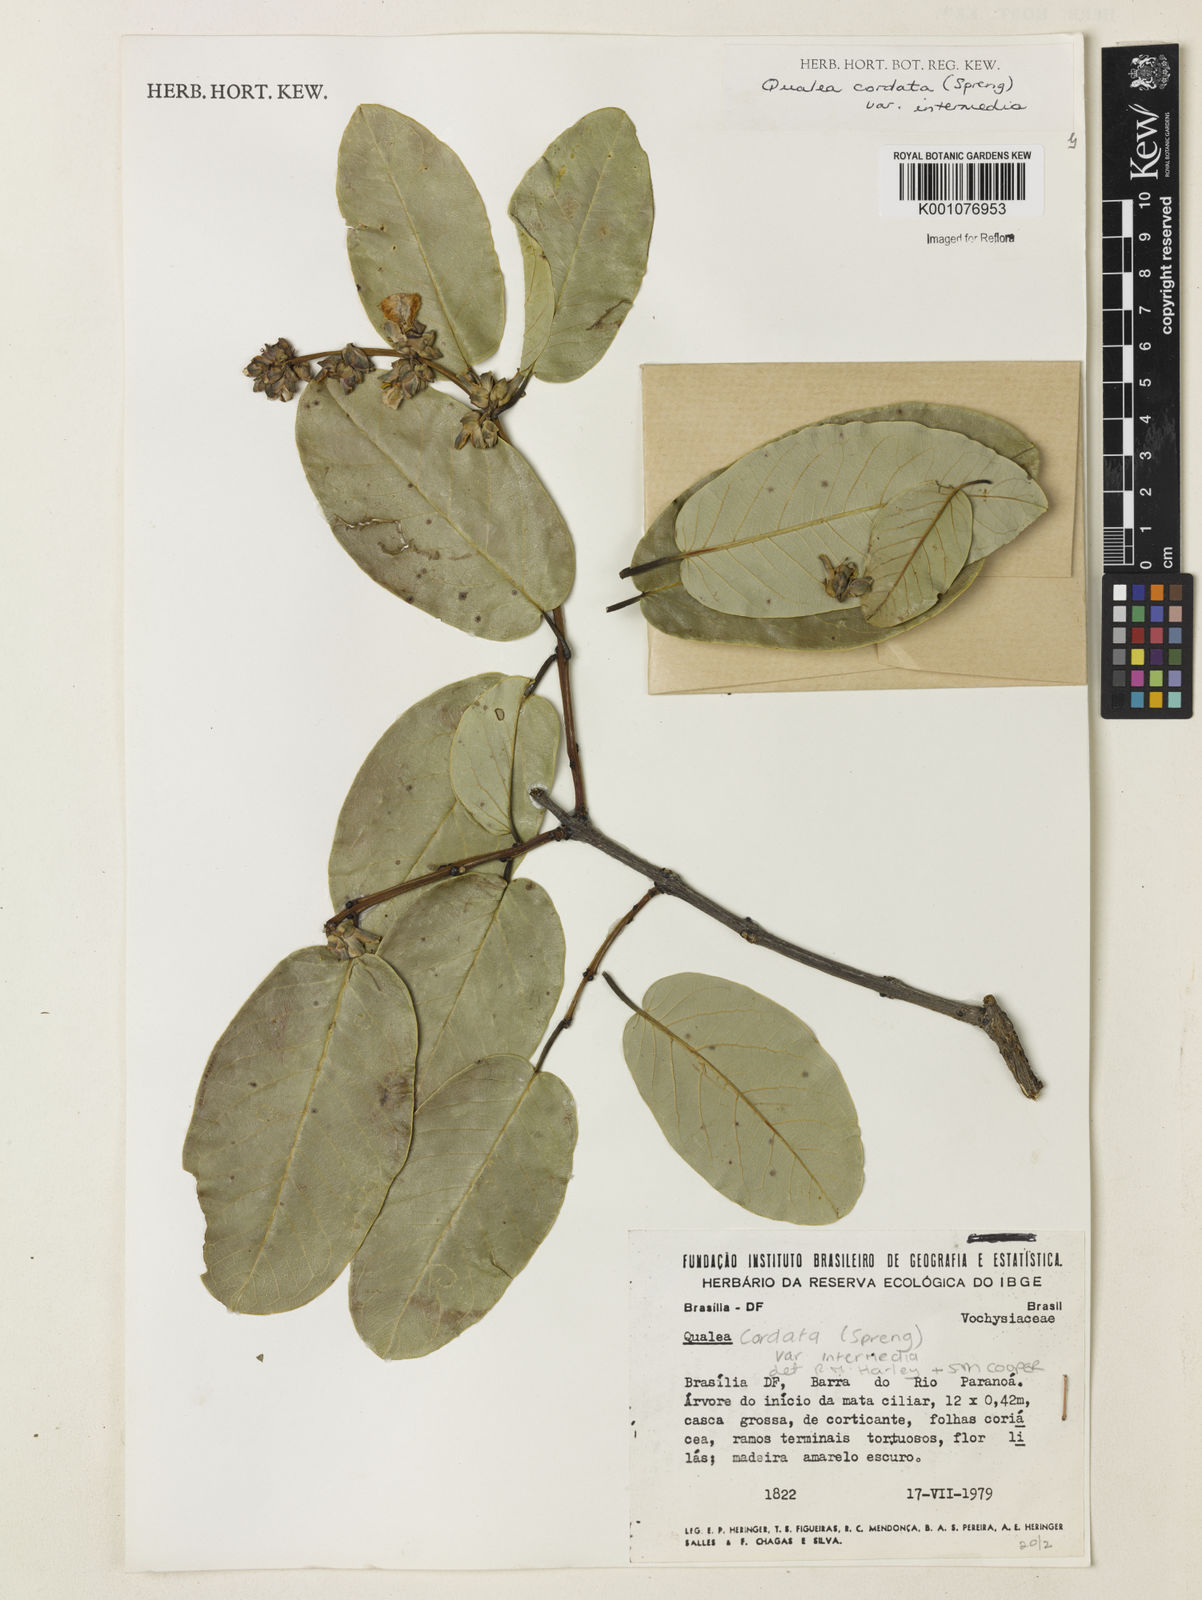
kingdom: Plantae
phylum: Tracheophyta
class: Magnoliopsida
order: Myrtales
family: Vochysiaceae
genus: Qualea
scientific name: Qualea cordata
